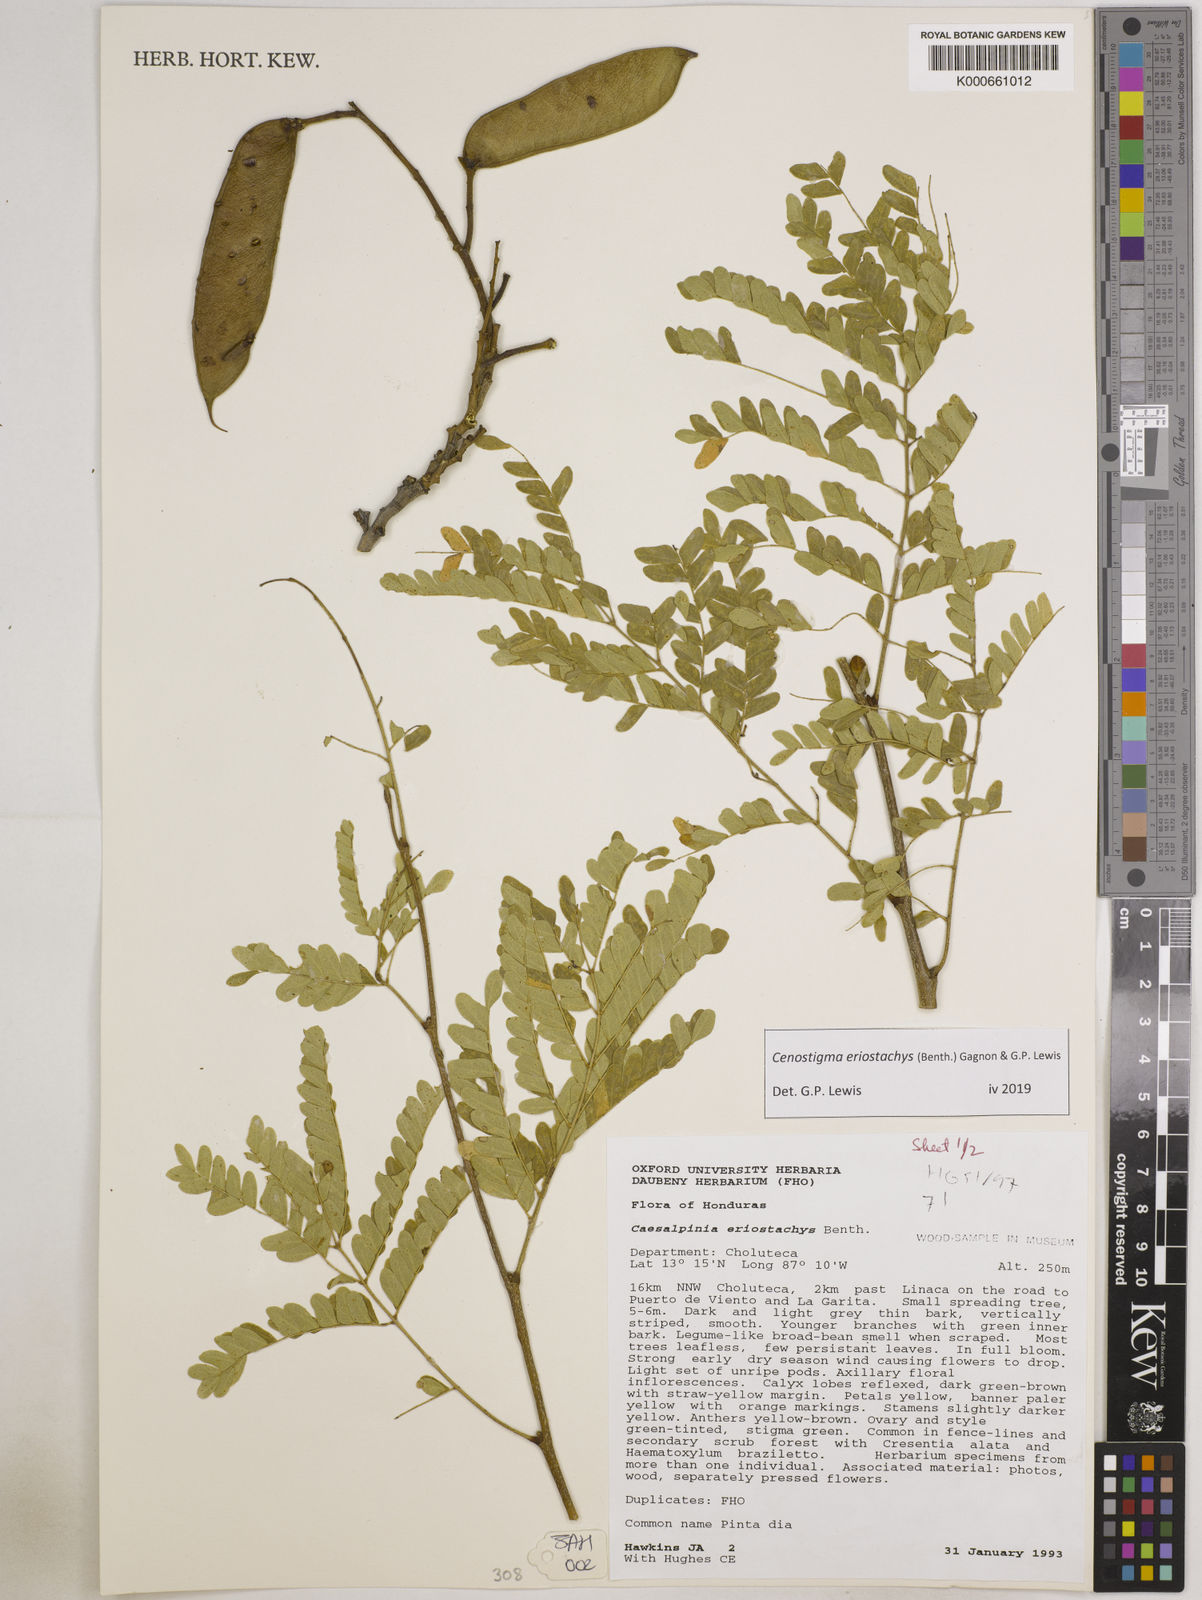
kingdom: Plantae
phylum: Tracheophyta
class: Magnoliopsida
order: Fabales
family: Fabaceae
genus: Cenostigma
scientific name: Cenostigma eriostachys
